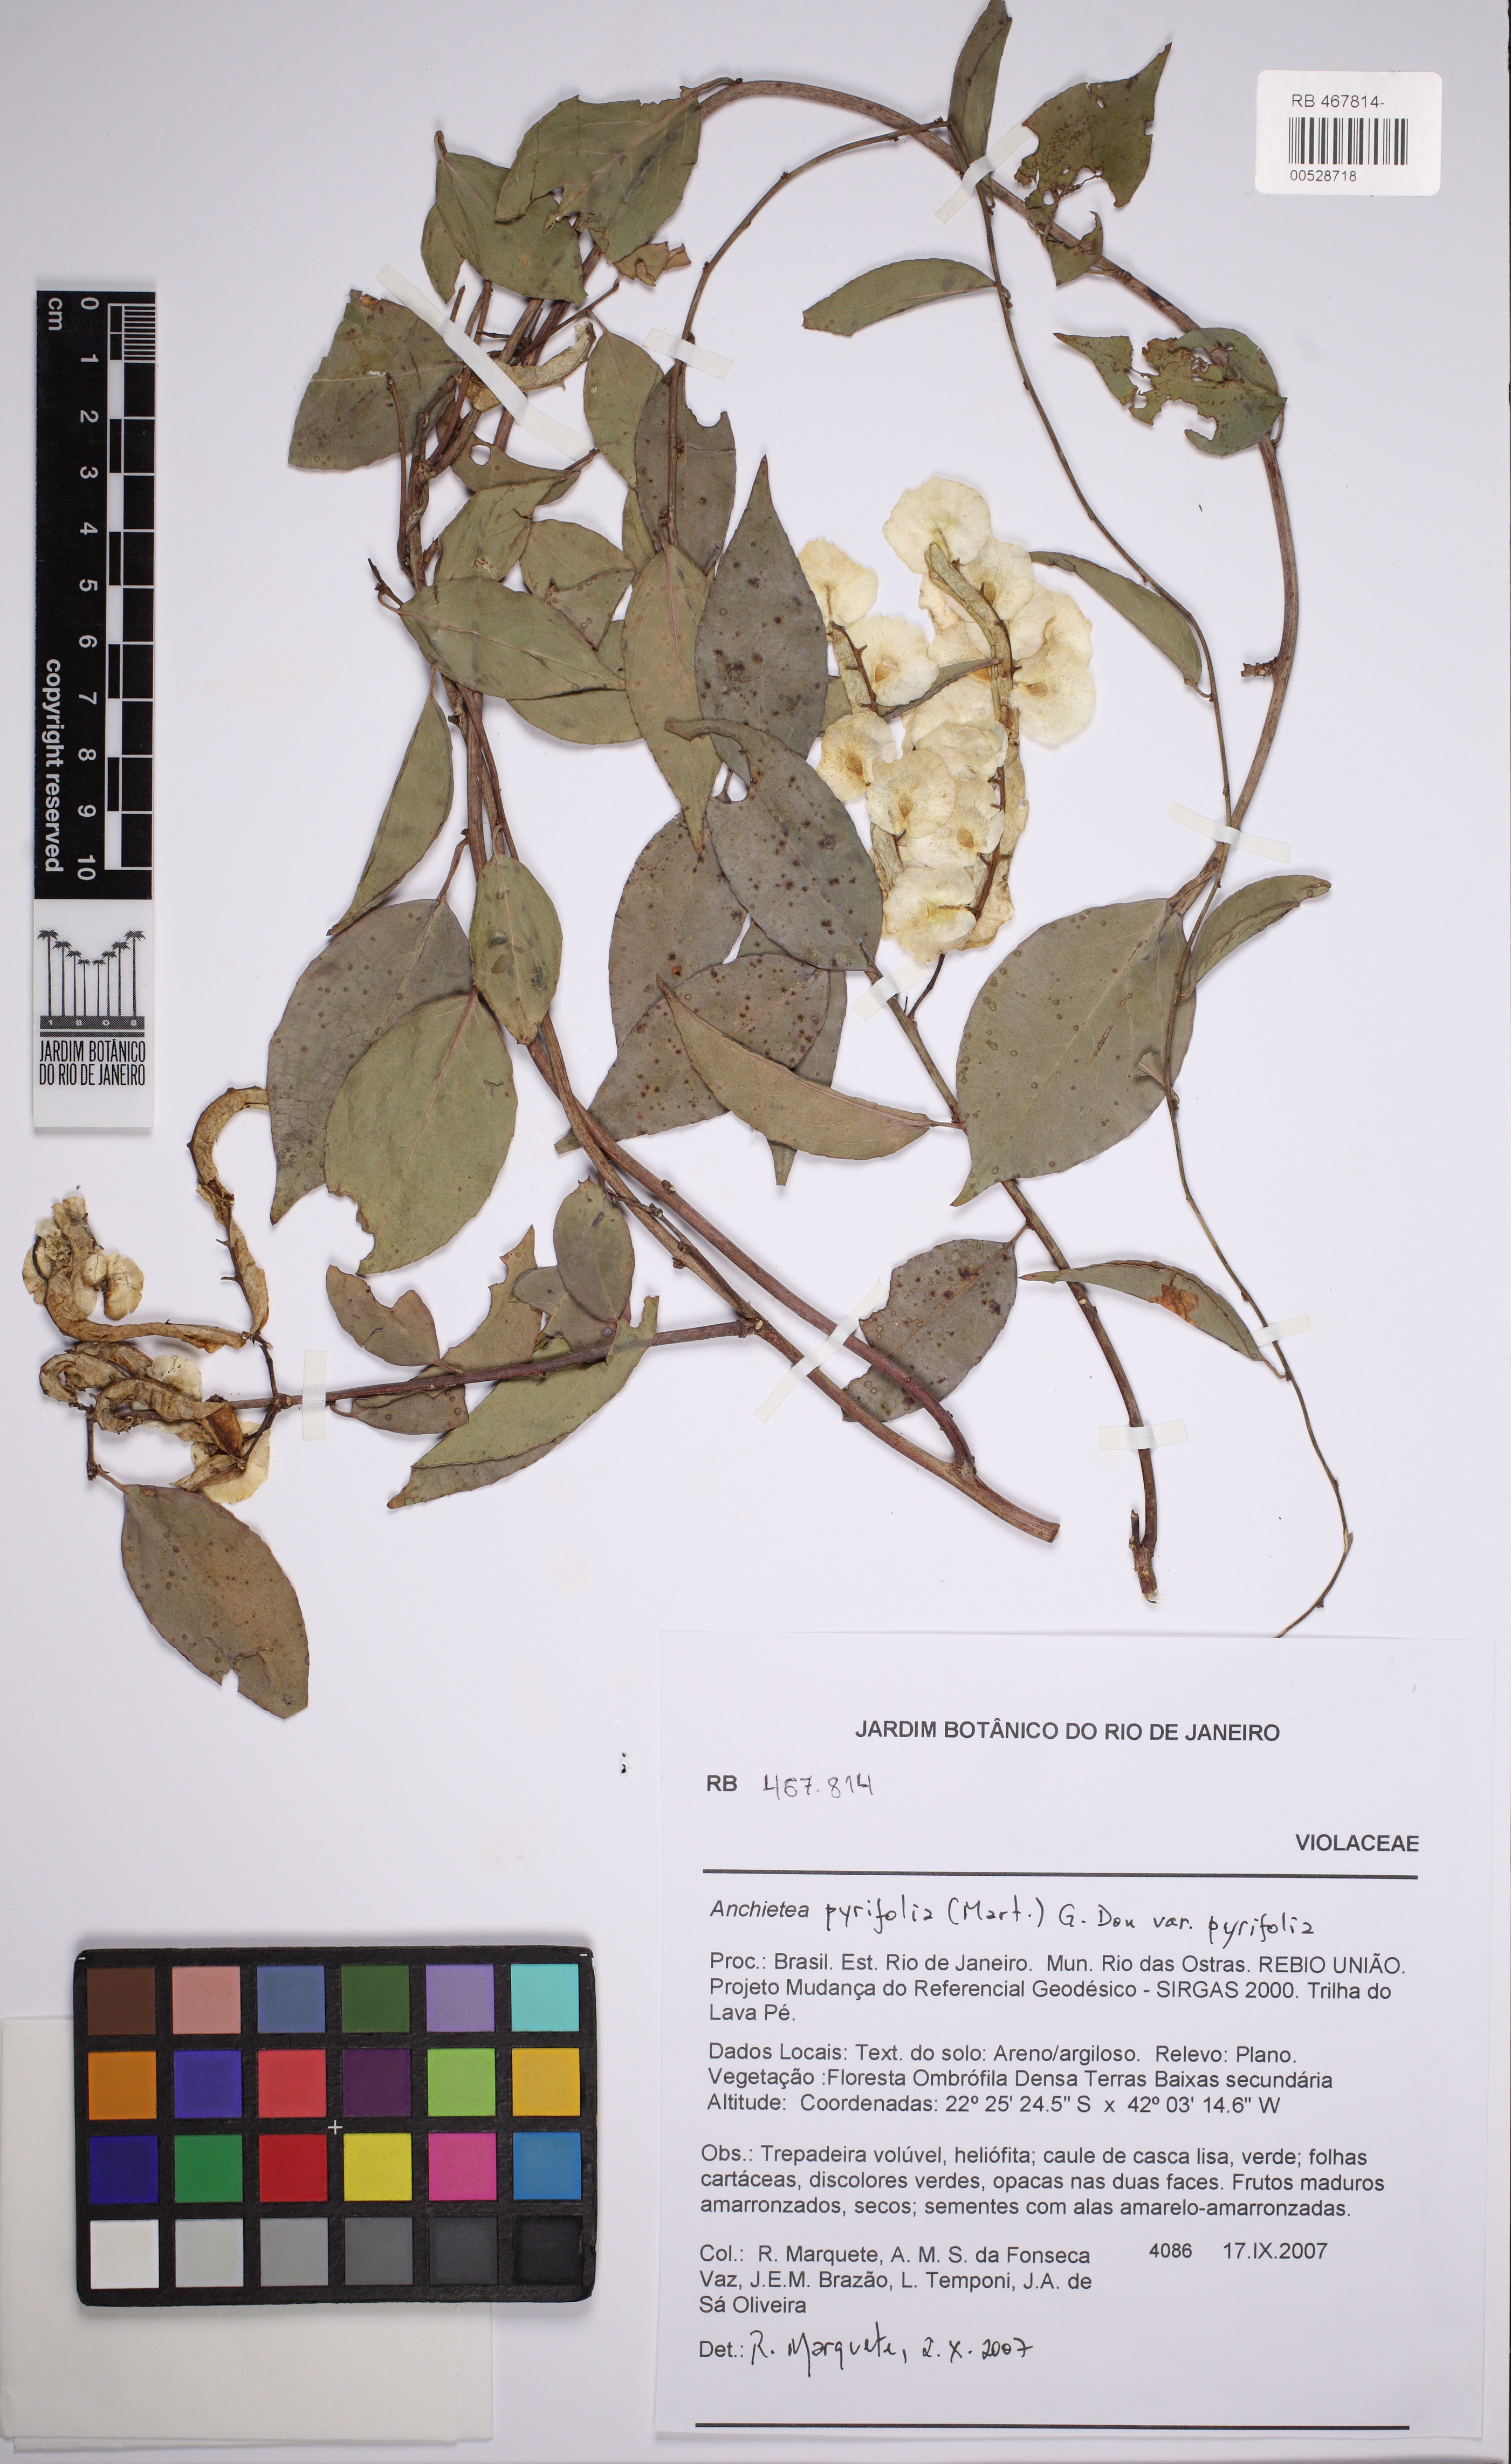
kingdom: Plantae
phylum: Tracheophyta
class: Magnoliopsida
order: Malpighiales
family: Violaceae
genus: Anchietea
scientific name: Anchietea pyrifolia
